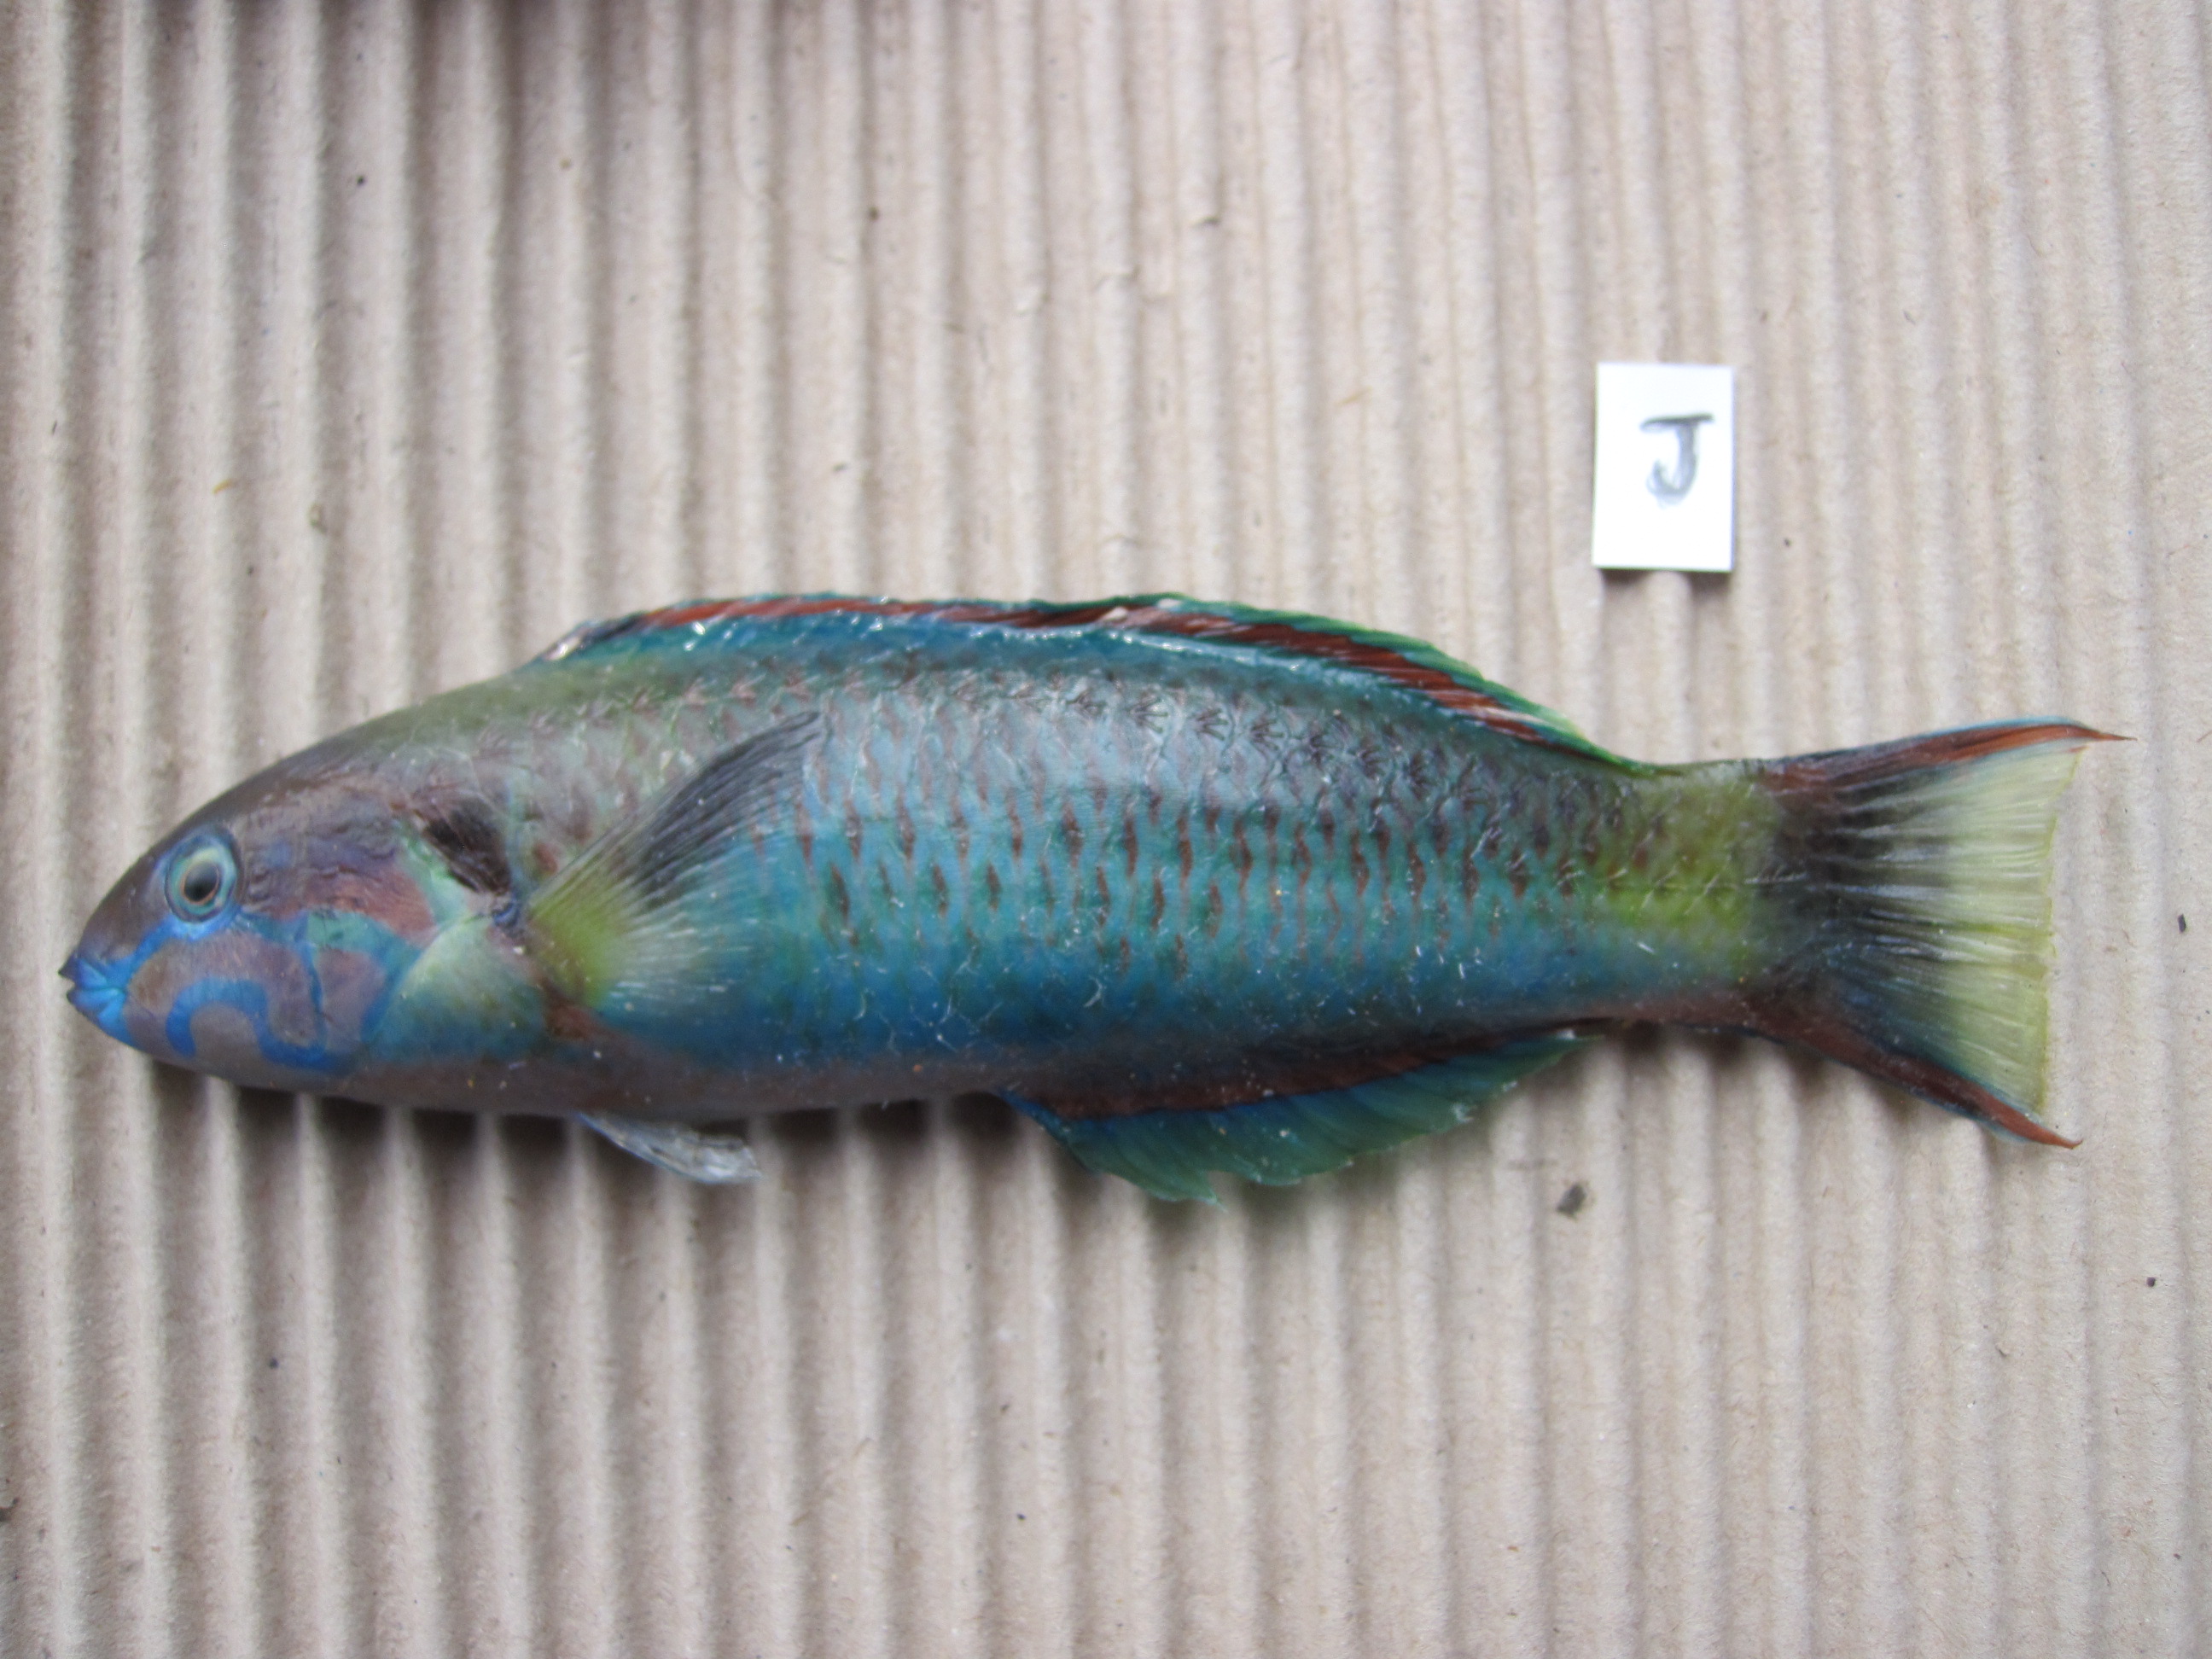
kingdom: Animalia
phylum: Chordata
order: Perciformes
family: Labridae
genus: Thalassoma
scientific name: Thalassoma lunare
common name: Blue wrasse
